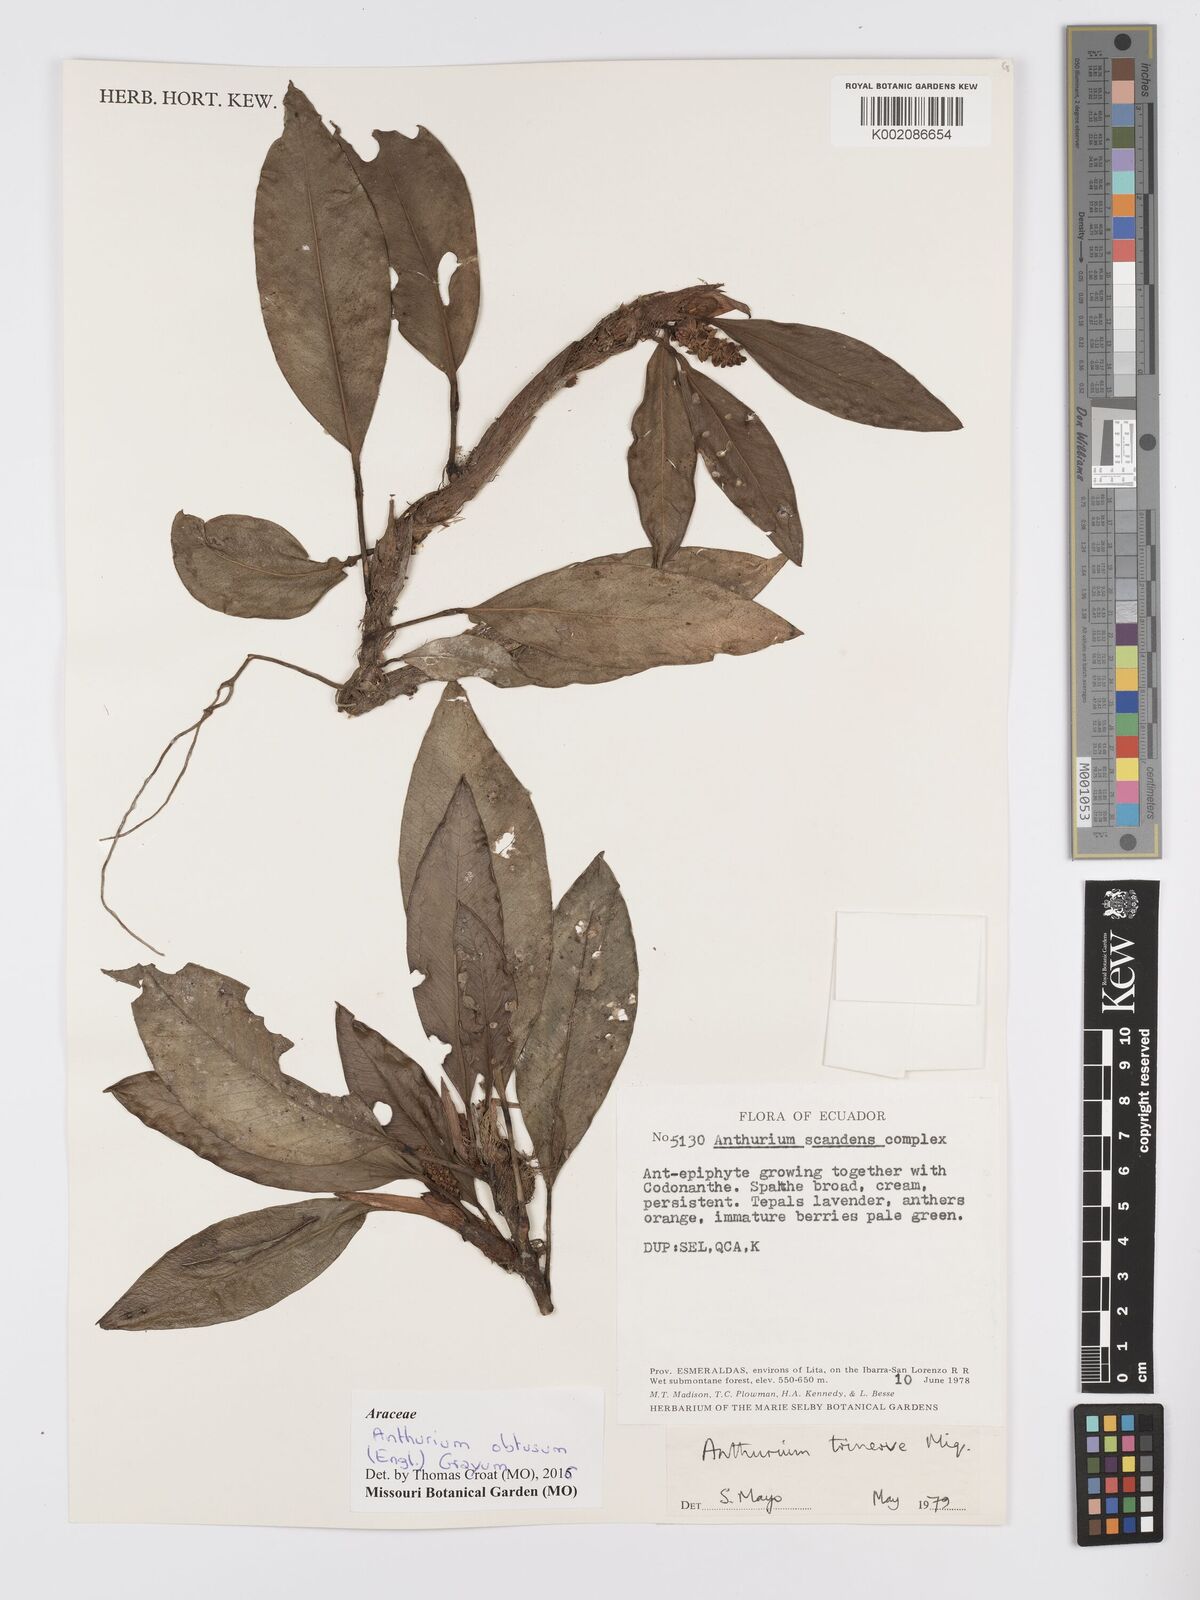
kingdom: Plantae
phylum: Tracheophyta
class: Liliopsida
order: Alismatales
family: Araceae
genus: Anthurium
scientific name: Anthurium obtusum
